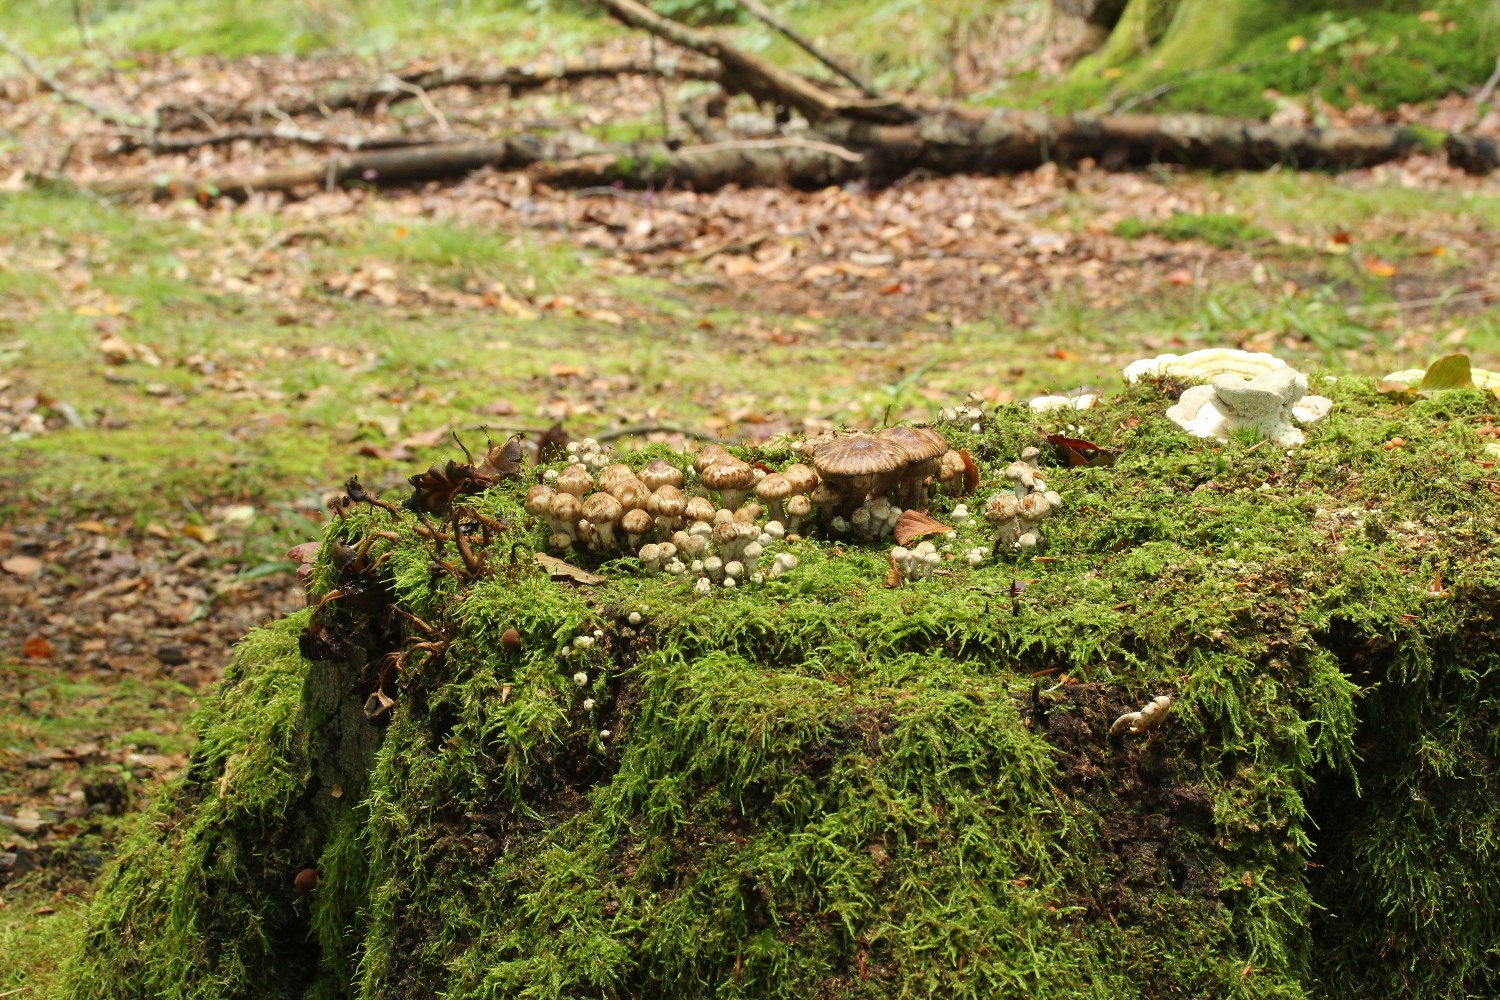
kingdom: Fungi
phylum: Basidiomycota
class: Agaricomycetes
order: Agaricales
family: Psathyrellaceae
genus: Psathyrella
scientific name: Psathyrella
